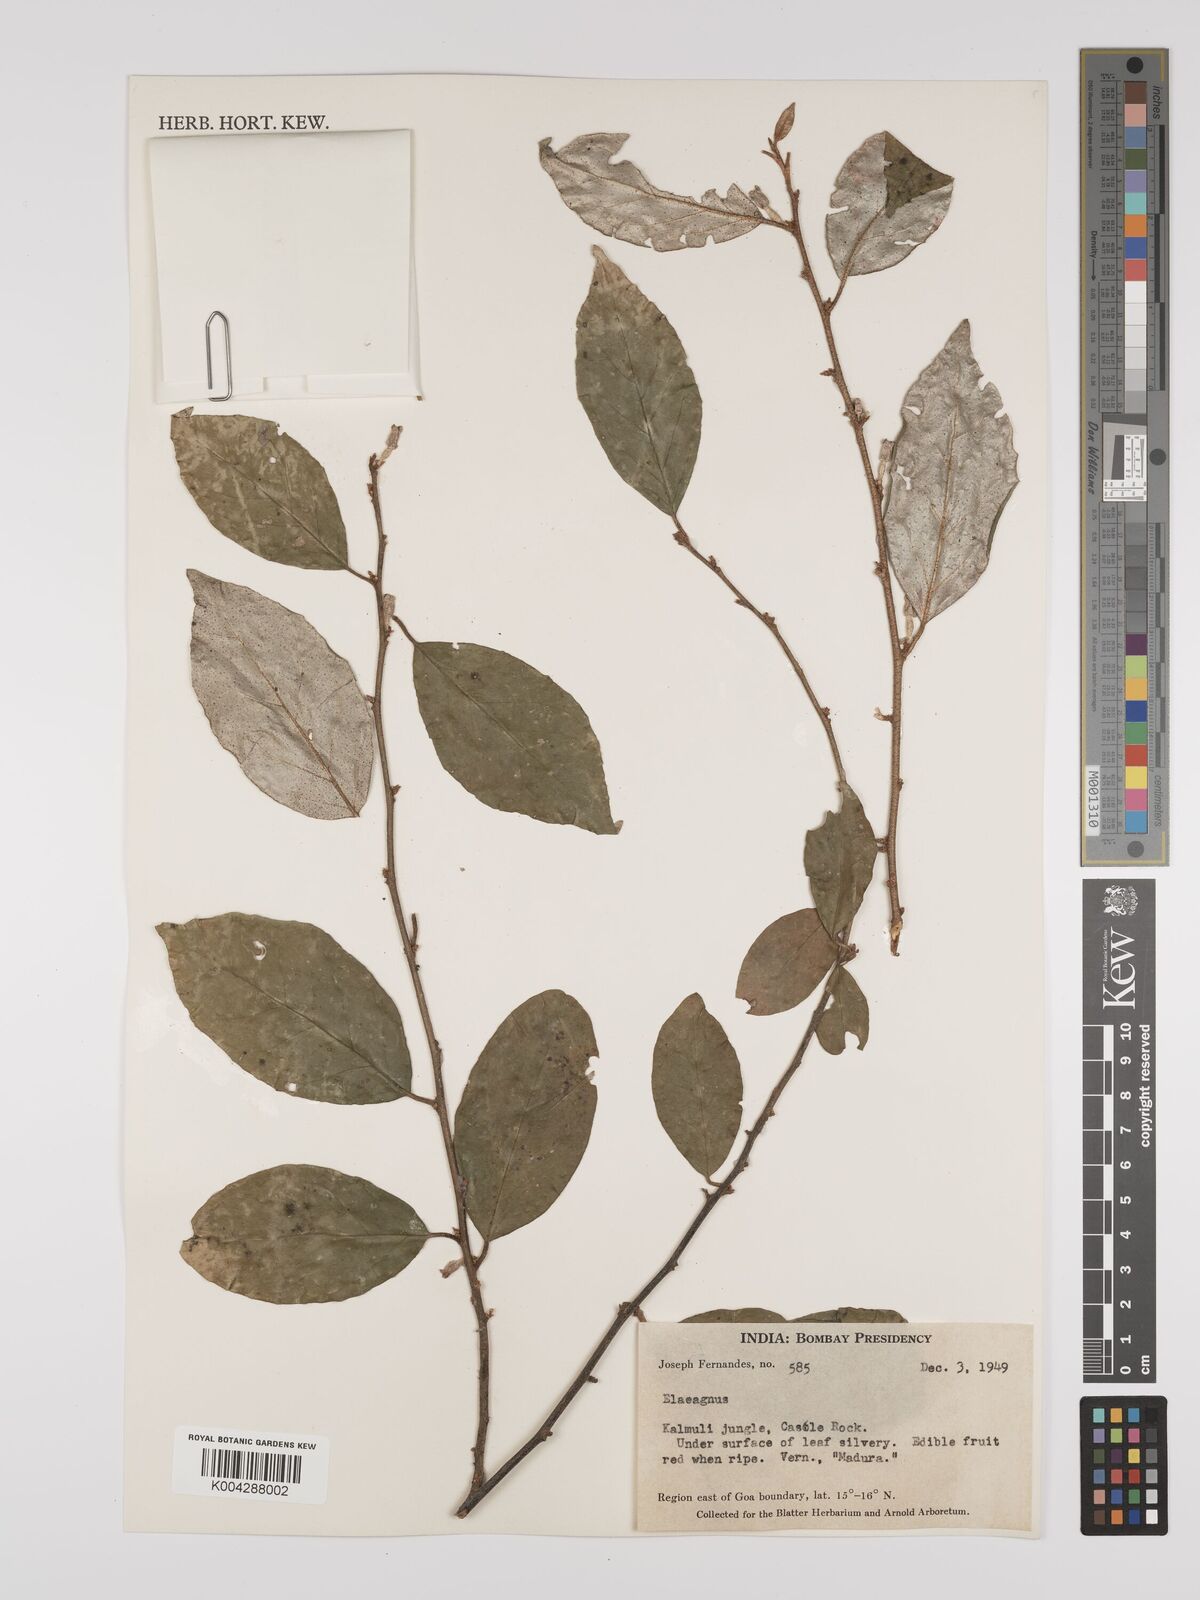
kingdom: Plantae
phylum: Tracheophyta
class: Magnoliopsida
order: Rosales
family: Elaeagnaceae
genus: Elaeagnus
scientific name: Elaeagnus latifolia
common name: Oleaster
